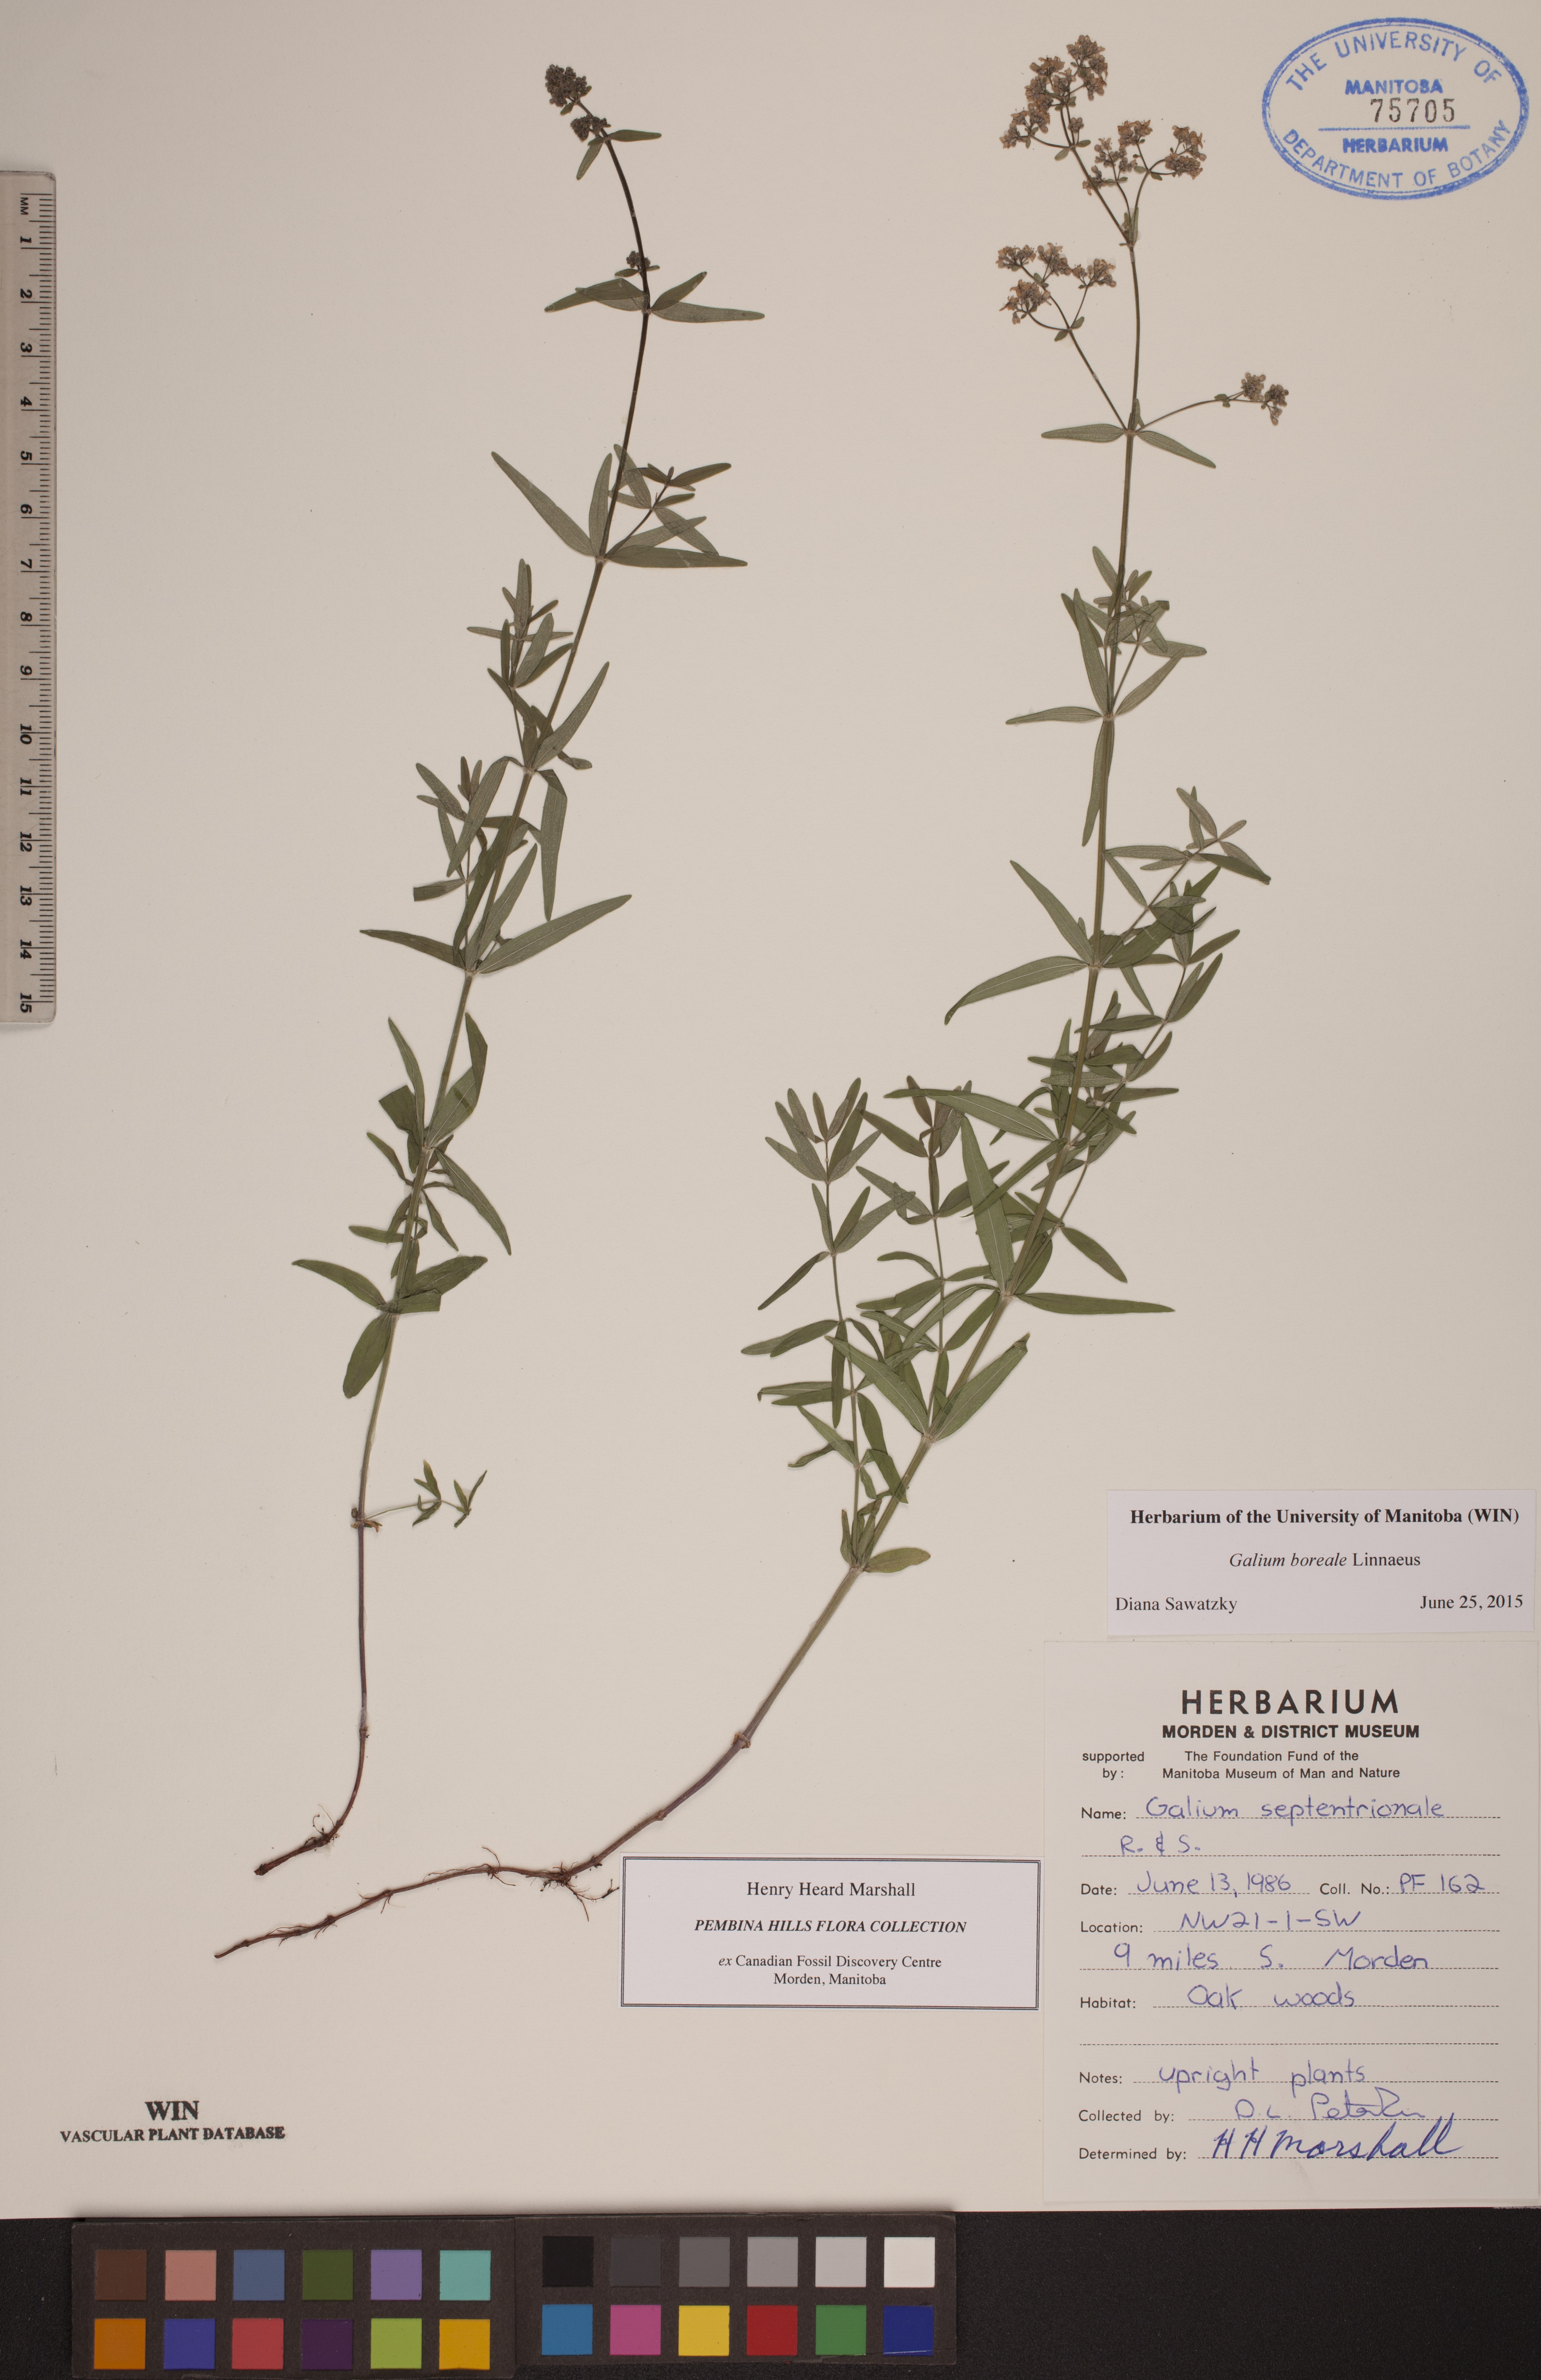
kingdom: Plantae
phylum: Tracheophyta
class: Magnoliopsida
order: Gentianales
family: Rubiaceae
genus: Galium
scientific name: Galium boreale
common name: Northern bedstraw
